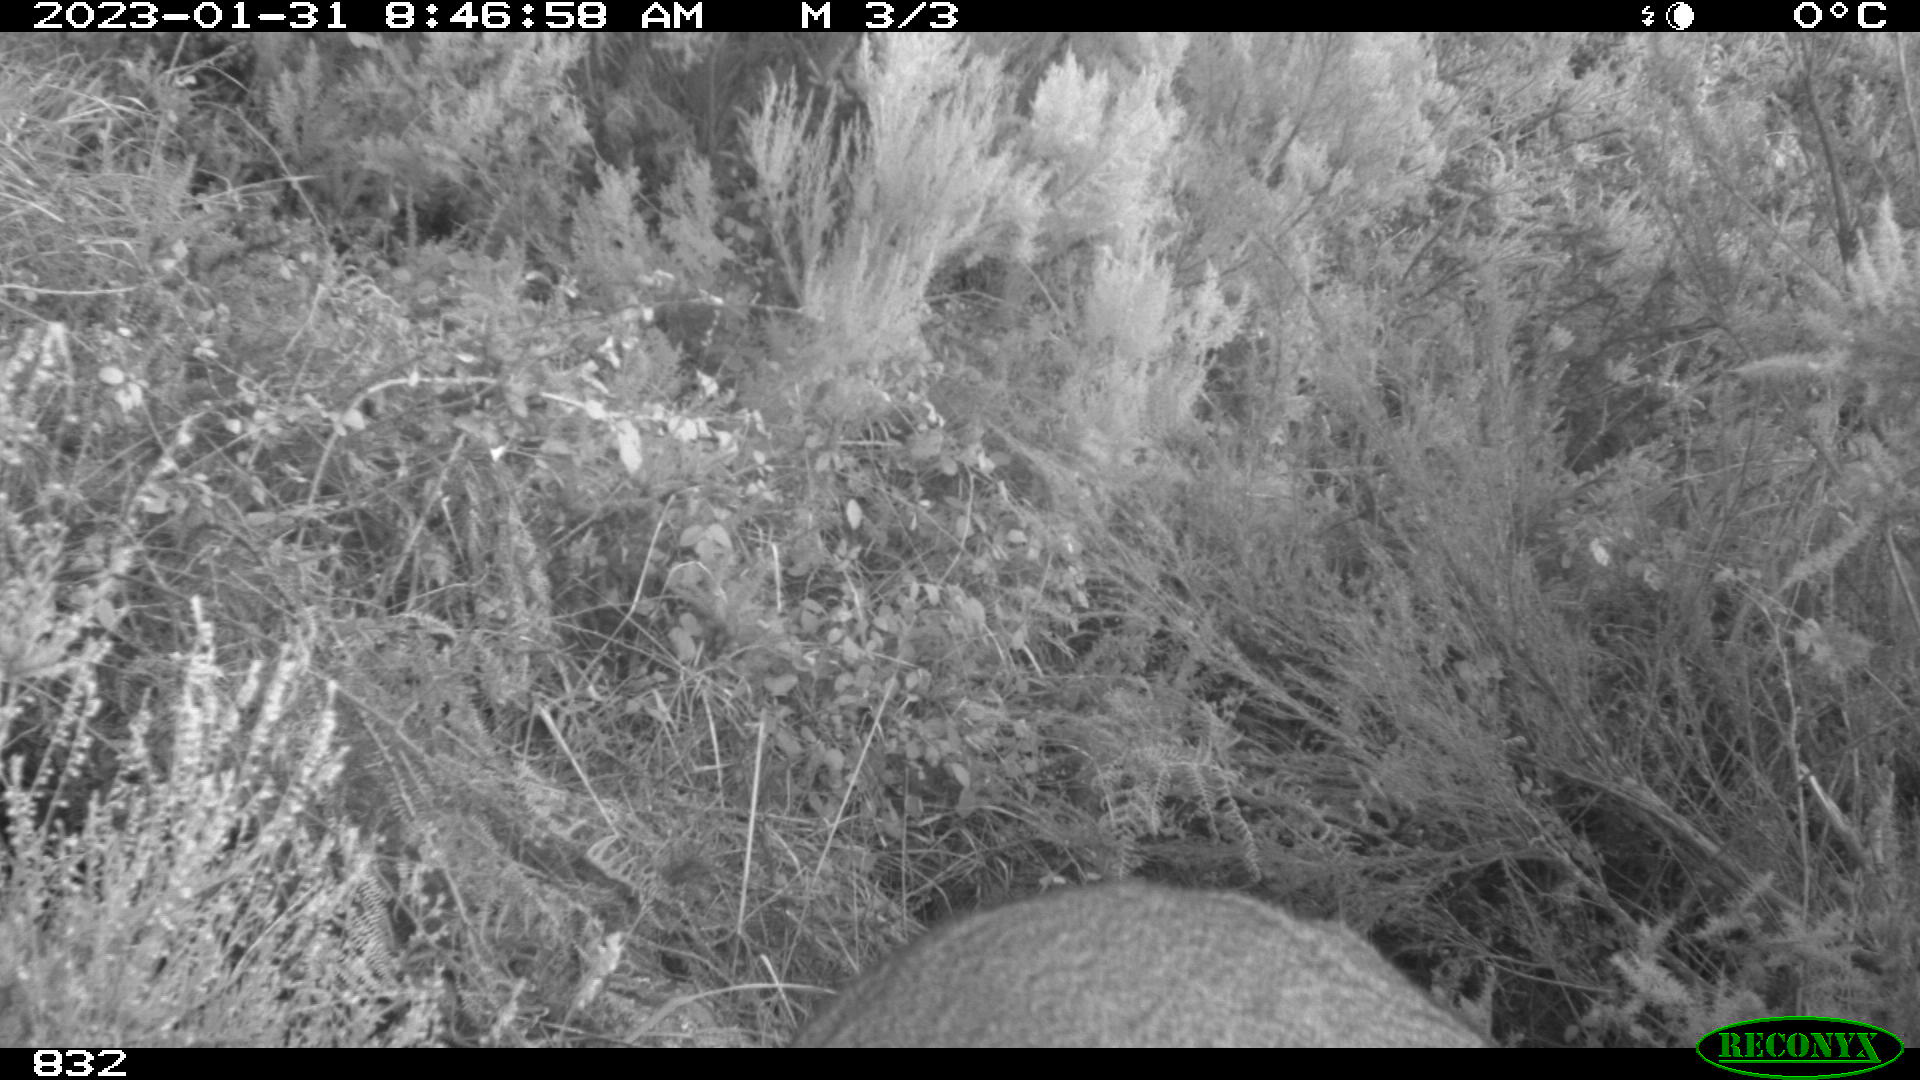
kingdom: Animalia
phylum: Chordata
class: Mammalia
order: Artiodactyla
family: Cervidae
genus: Capreolus
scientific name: Capreolus capreolus
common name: Western roe deer
